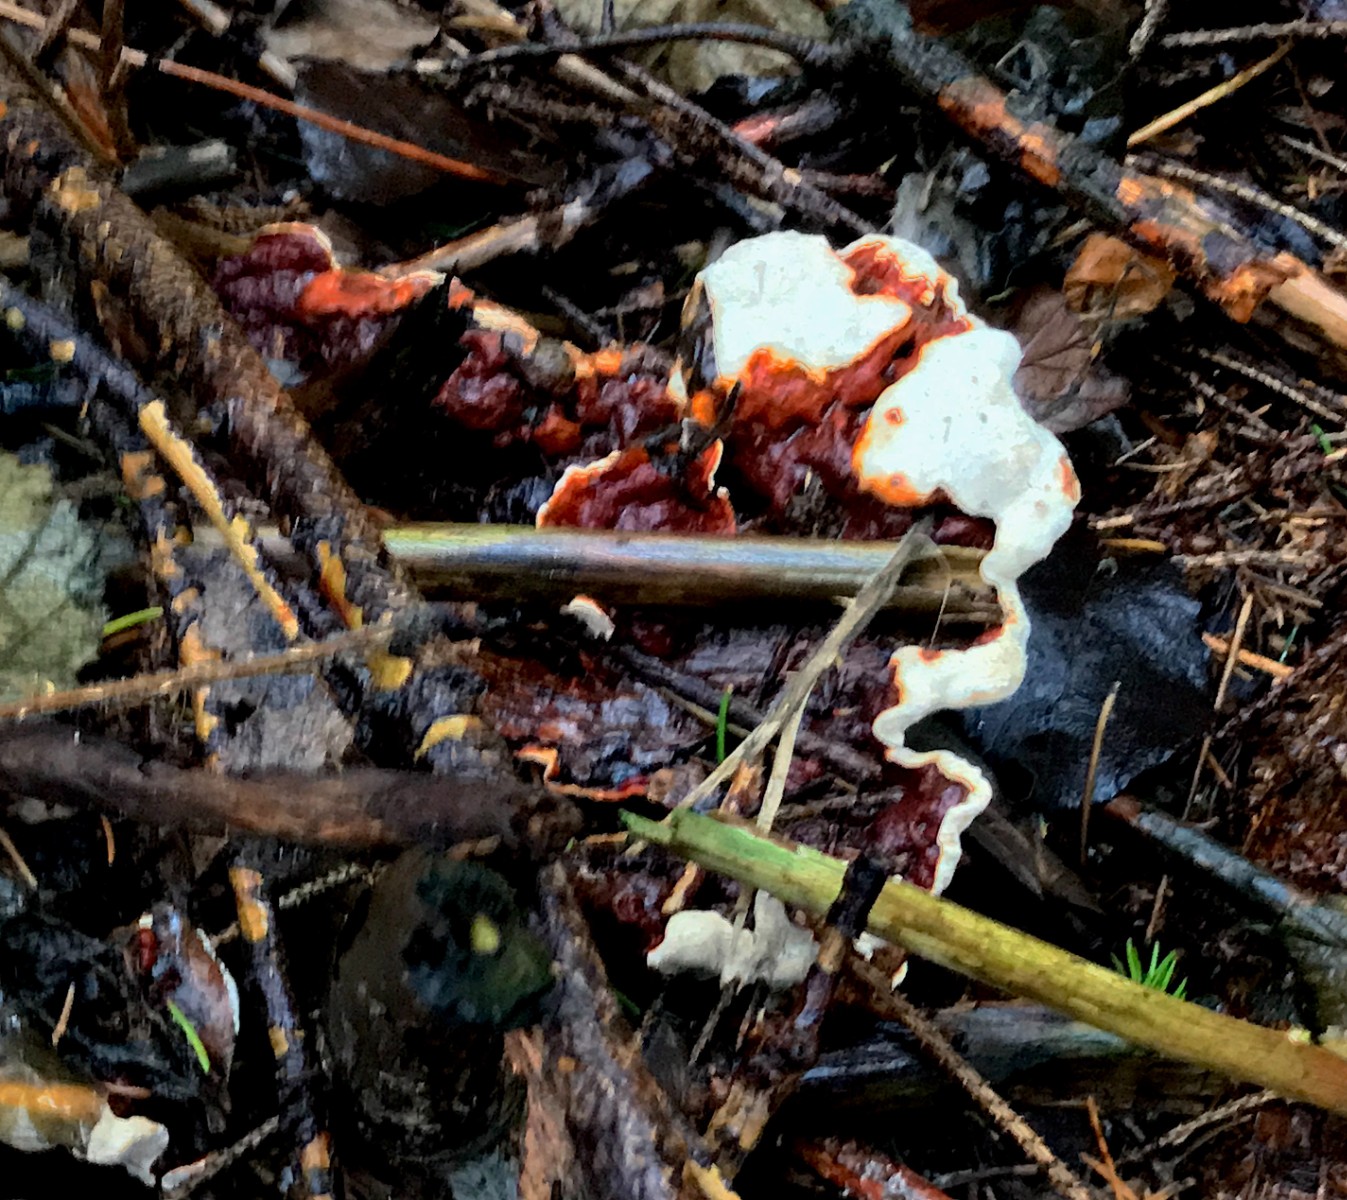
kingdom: Fungi
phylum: Basidiomycota
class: Agaricomycetes
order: Russulales
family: Bondarzewiaceae
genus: Heterobasidion
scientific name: Heterobasidion annosum
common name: almindelig rodfordærver
